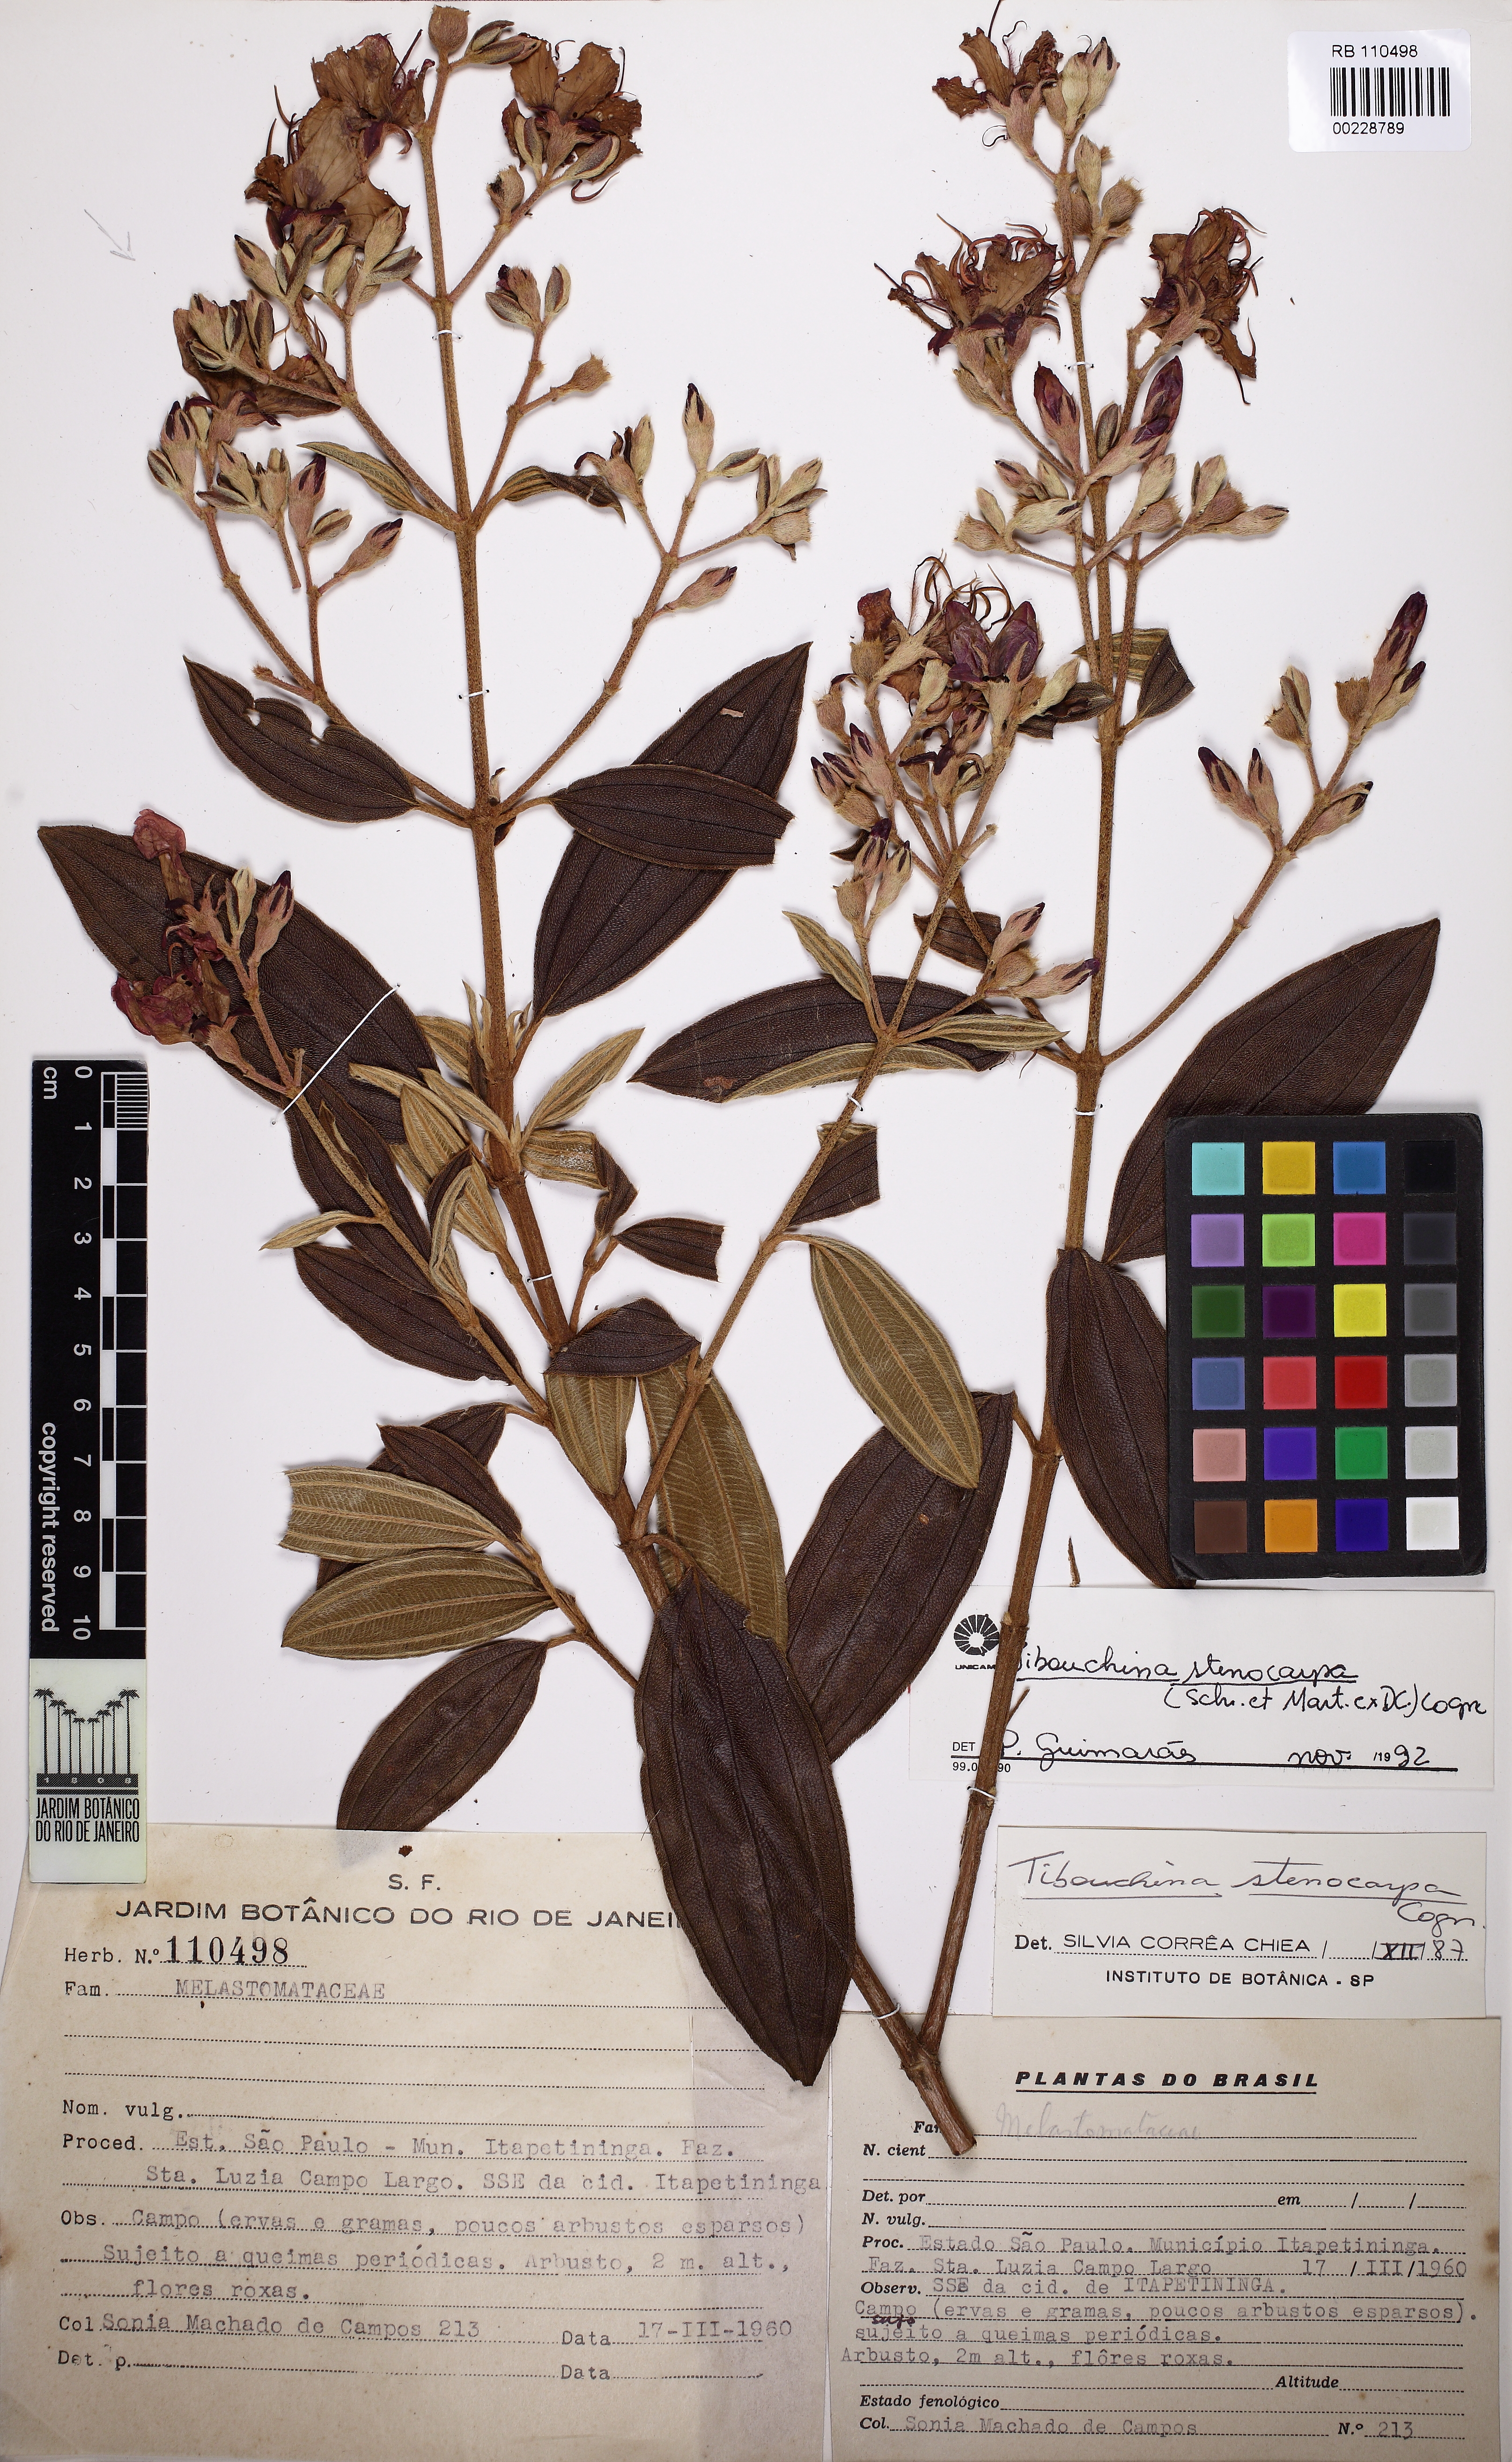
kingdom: Plantae
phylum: Tracheophyta
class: Magnoliopsida
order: Myrtales
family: Melastomataceae
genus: Chaetogastra
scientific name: Chaetogastra simplicicaulis
